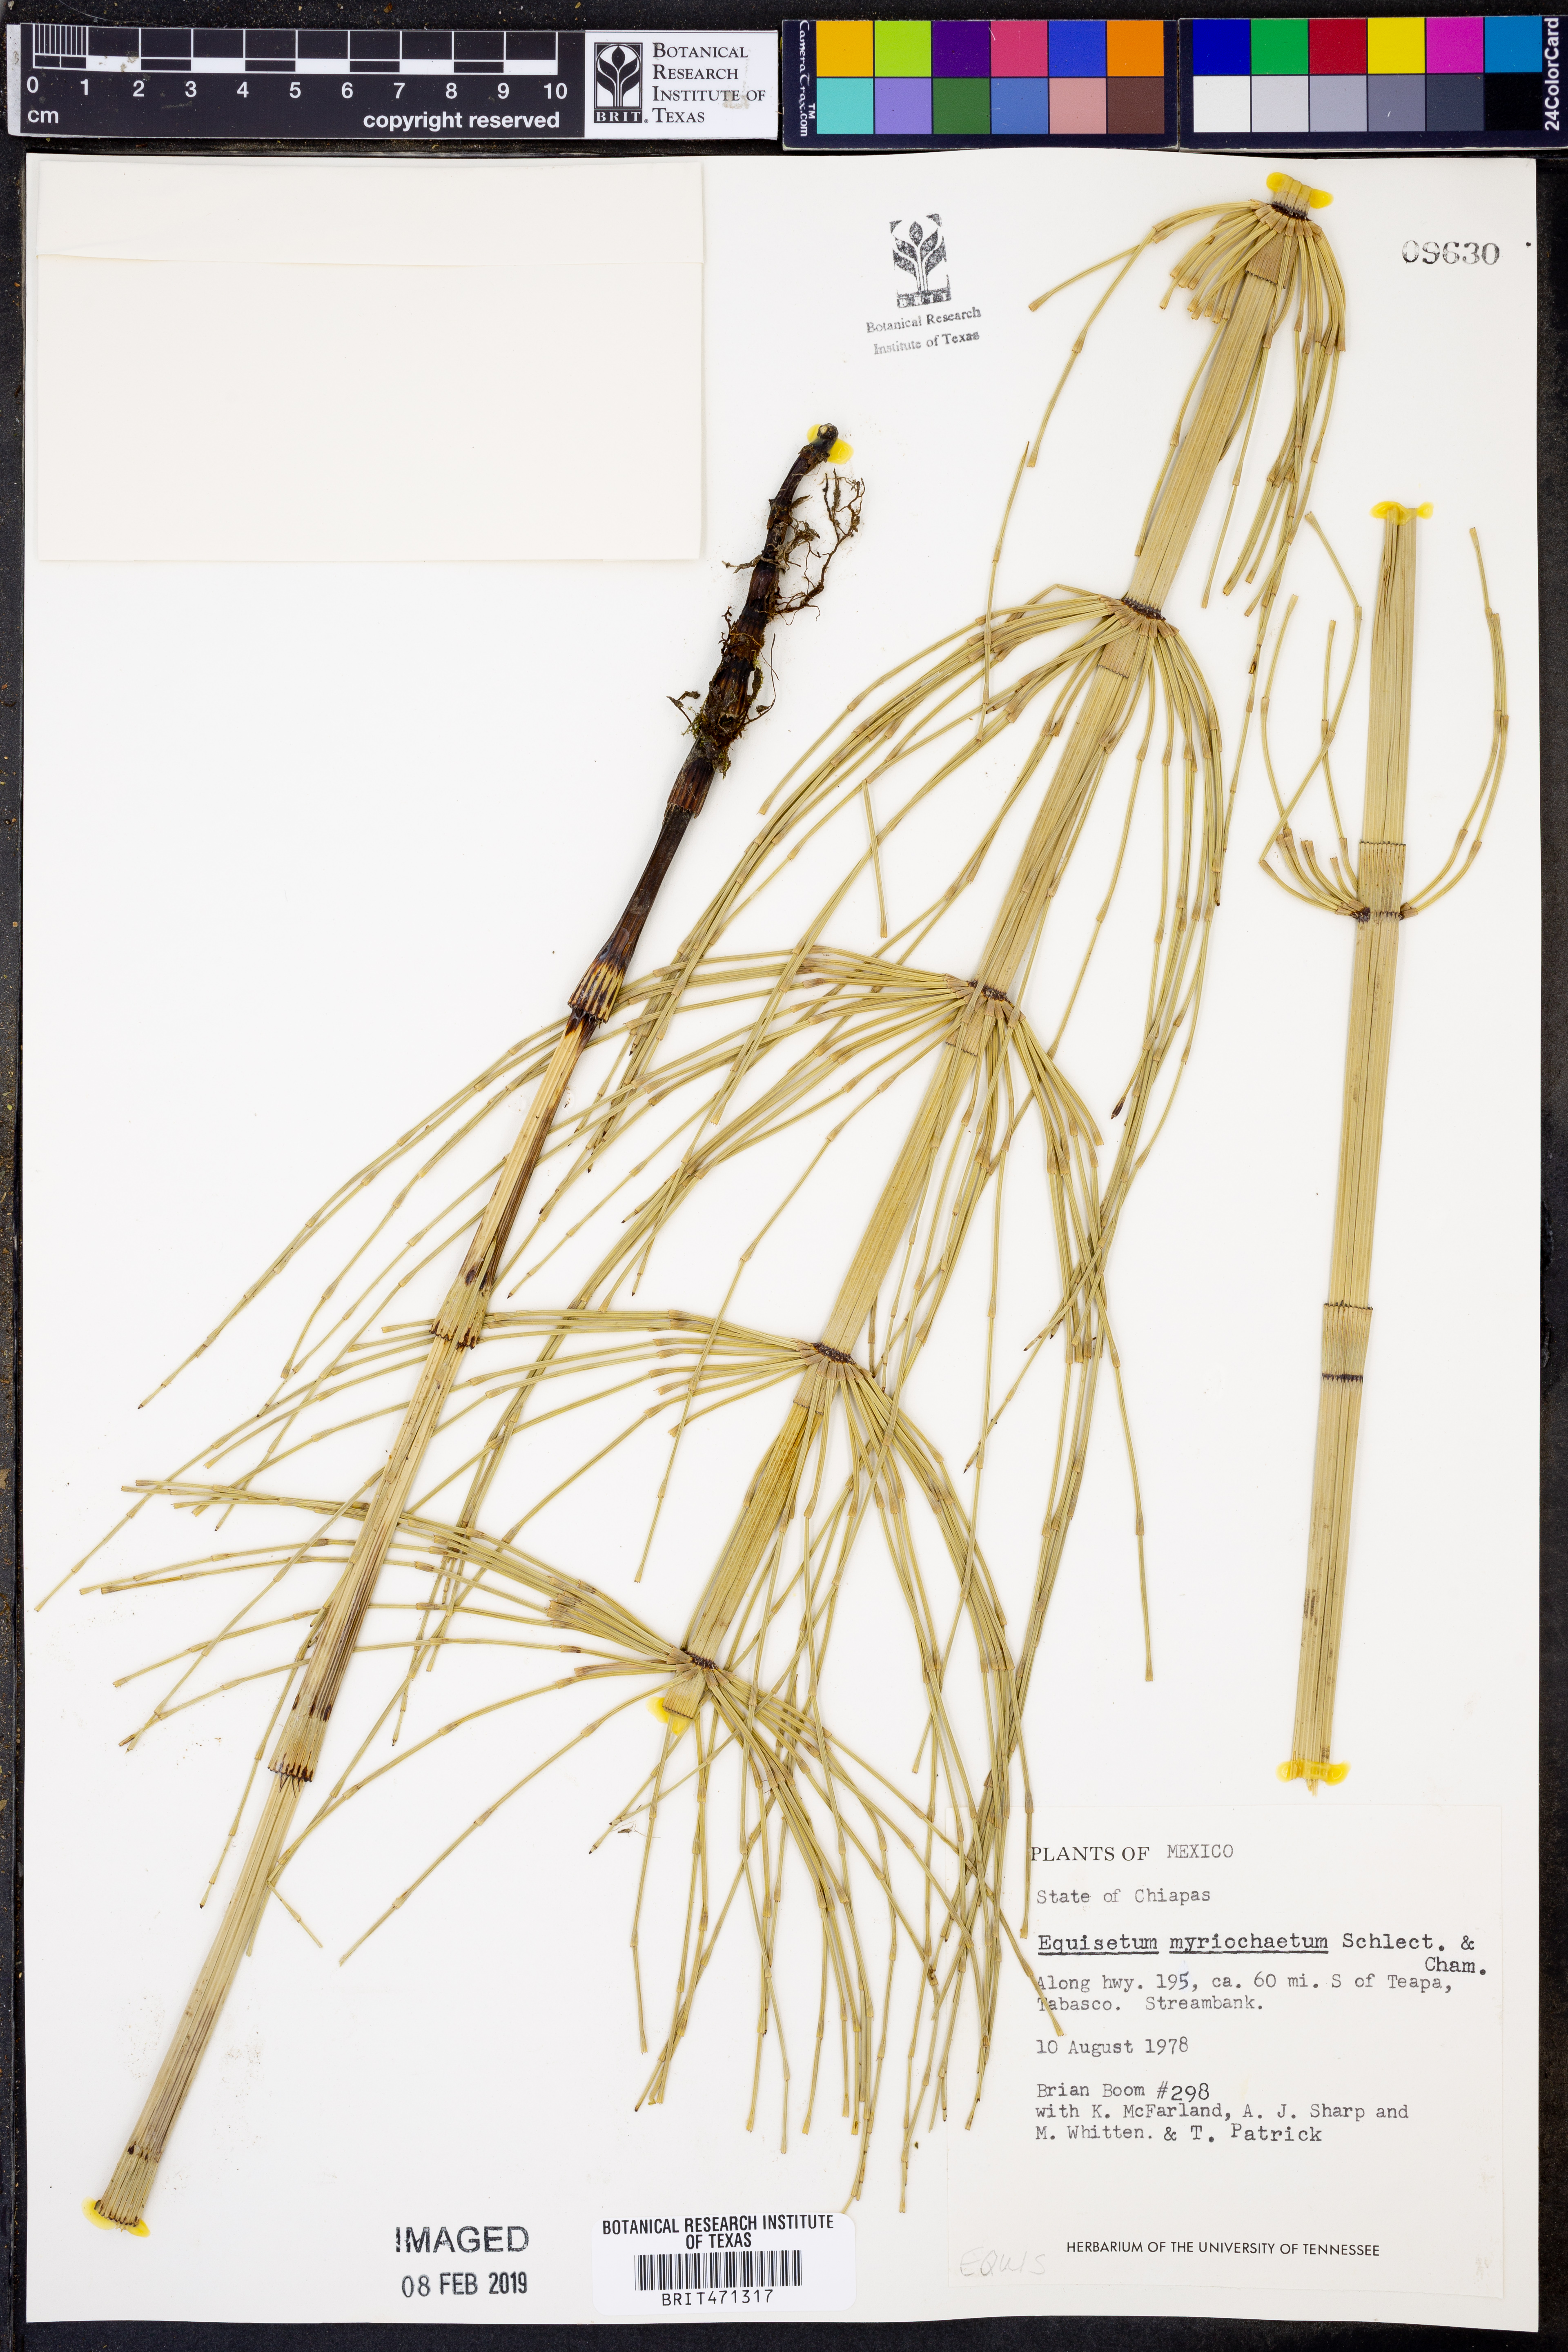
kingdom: Plantae
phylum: Tracheophyta
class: Polypodiopsida
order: Equisetales
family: Equisetaceae
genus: Equisetum
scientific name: Equisetum myriochaetum
